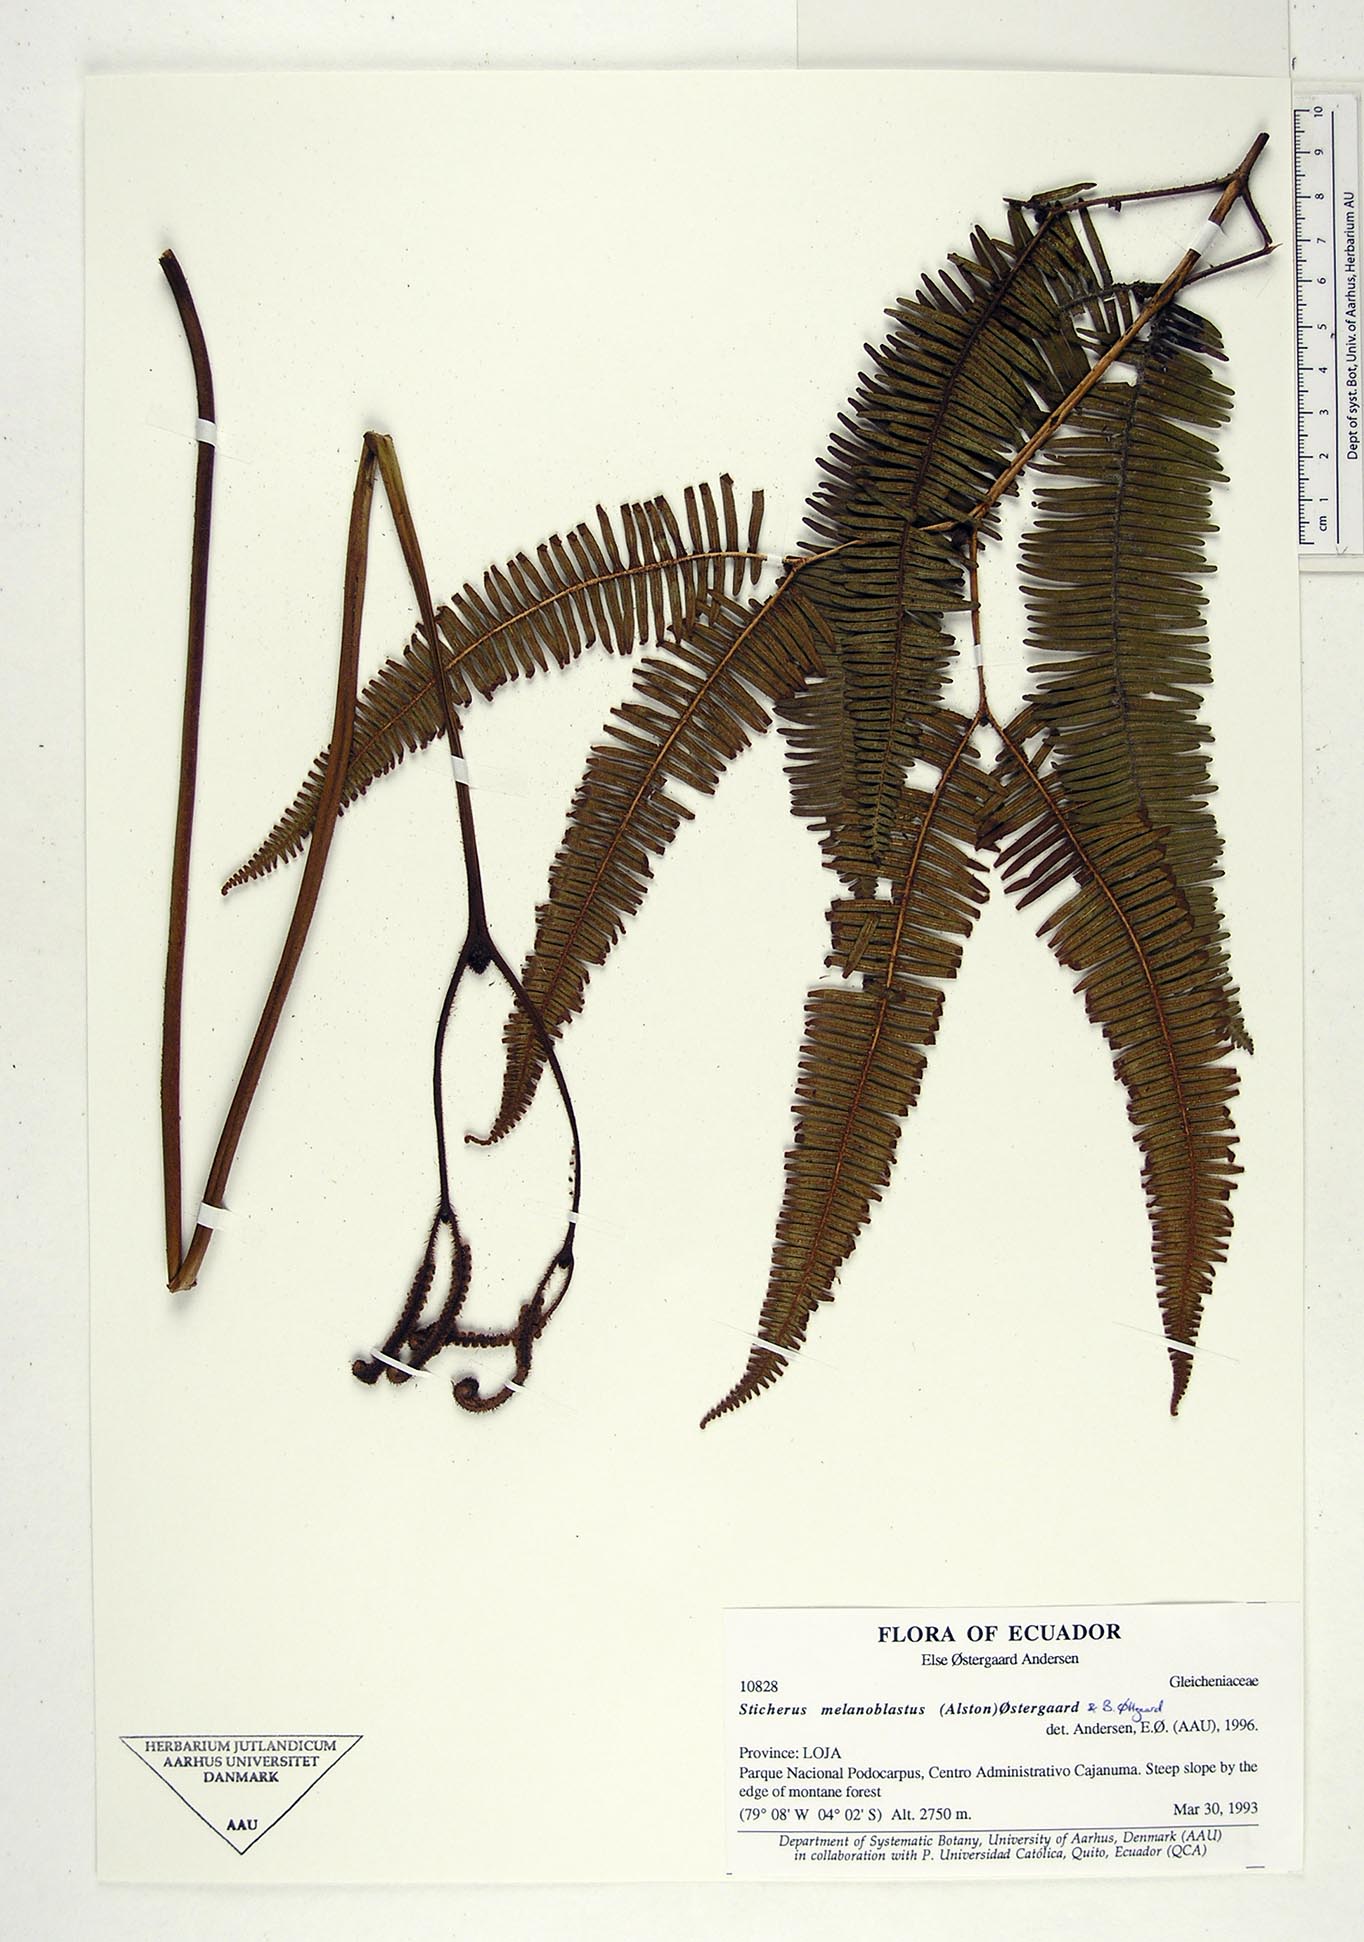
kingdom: Plantae
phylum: Tracheophyta
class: Polypodiopsida
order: Gleicheniales
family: Gleicheniaceae
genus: Sticherus
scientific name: Sticherus melanoblastus
